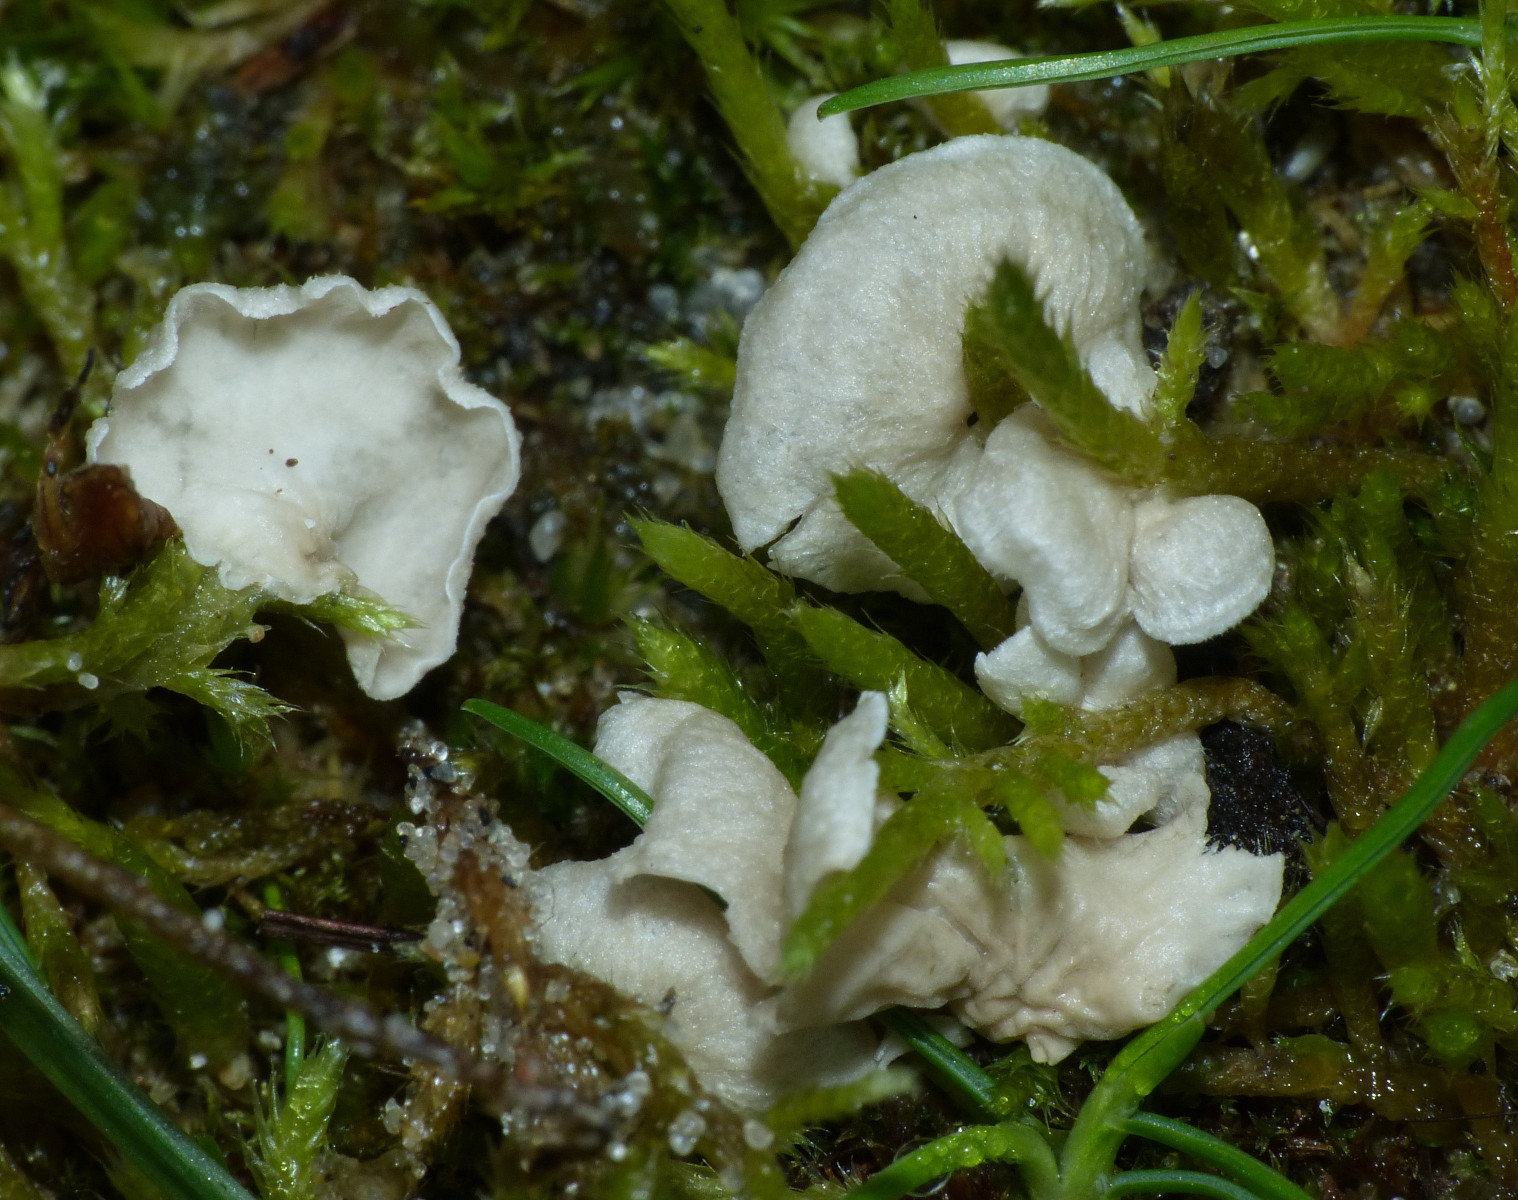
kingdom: Fungi
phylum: Basidiomycota
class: Agaricomycetes
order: Agaricales
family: Hygrophoraceae
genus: Arrhenia
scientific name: Arrhenia retiruga
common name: lille fontænehat
